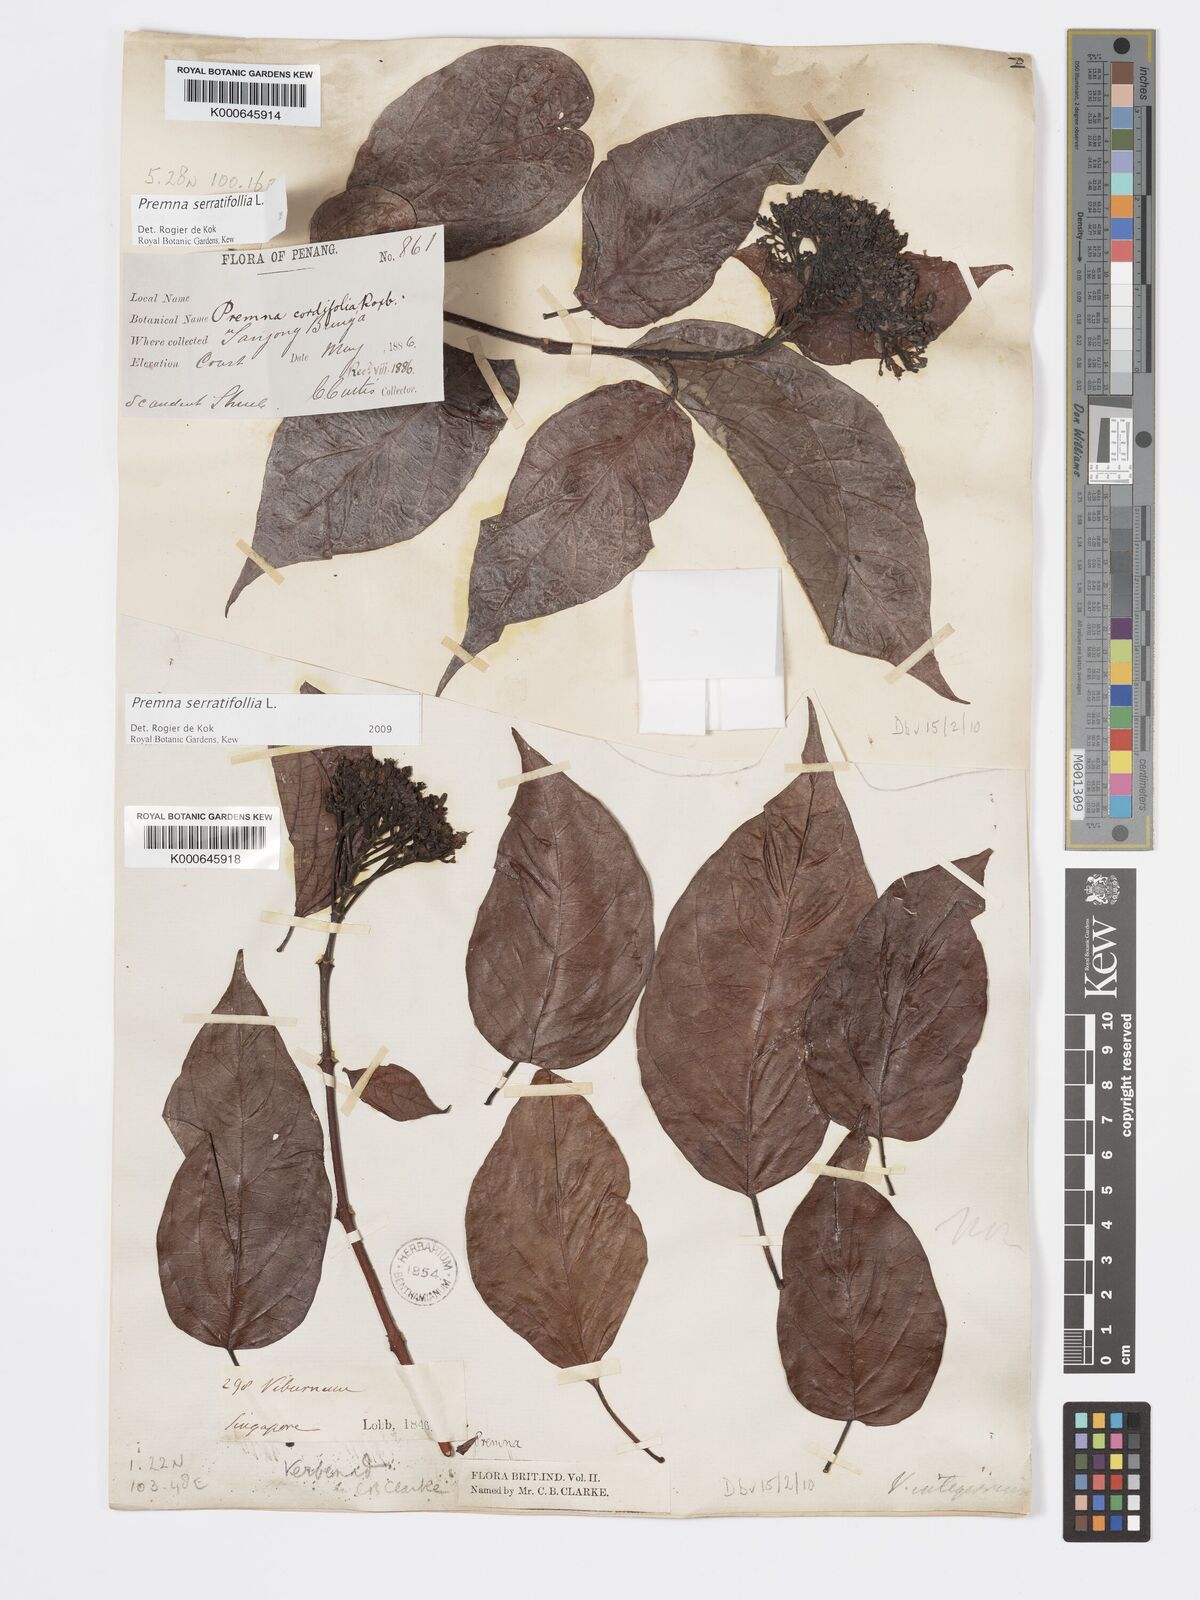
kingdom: Plantae
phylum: Tracheophyta
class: Magnoliopsida
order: Lamiales
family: Lamiaceae
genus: Premna
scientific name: Premna serratifolia
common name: Bastard guelder
